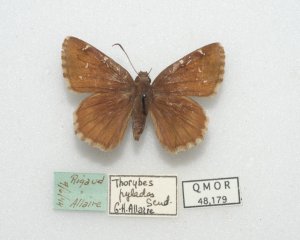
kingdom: Animalia
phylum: Arthropoda
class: Insecta
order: Lepidoptera
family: Hesperiidae
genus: Autochton
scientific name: Autochton
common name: Northern Cloudywing
